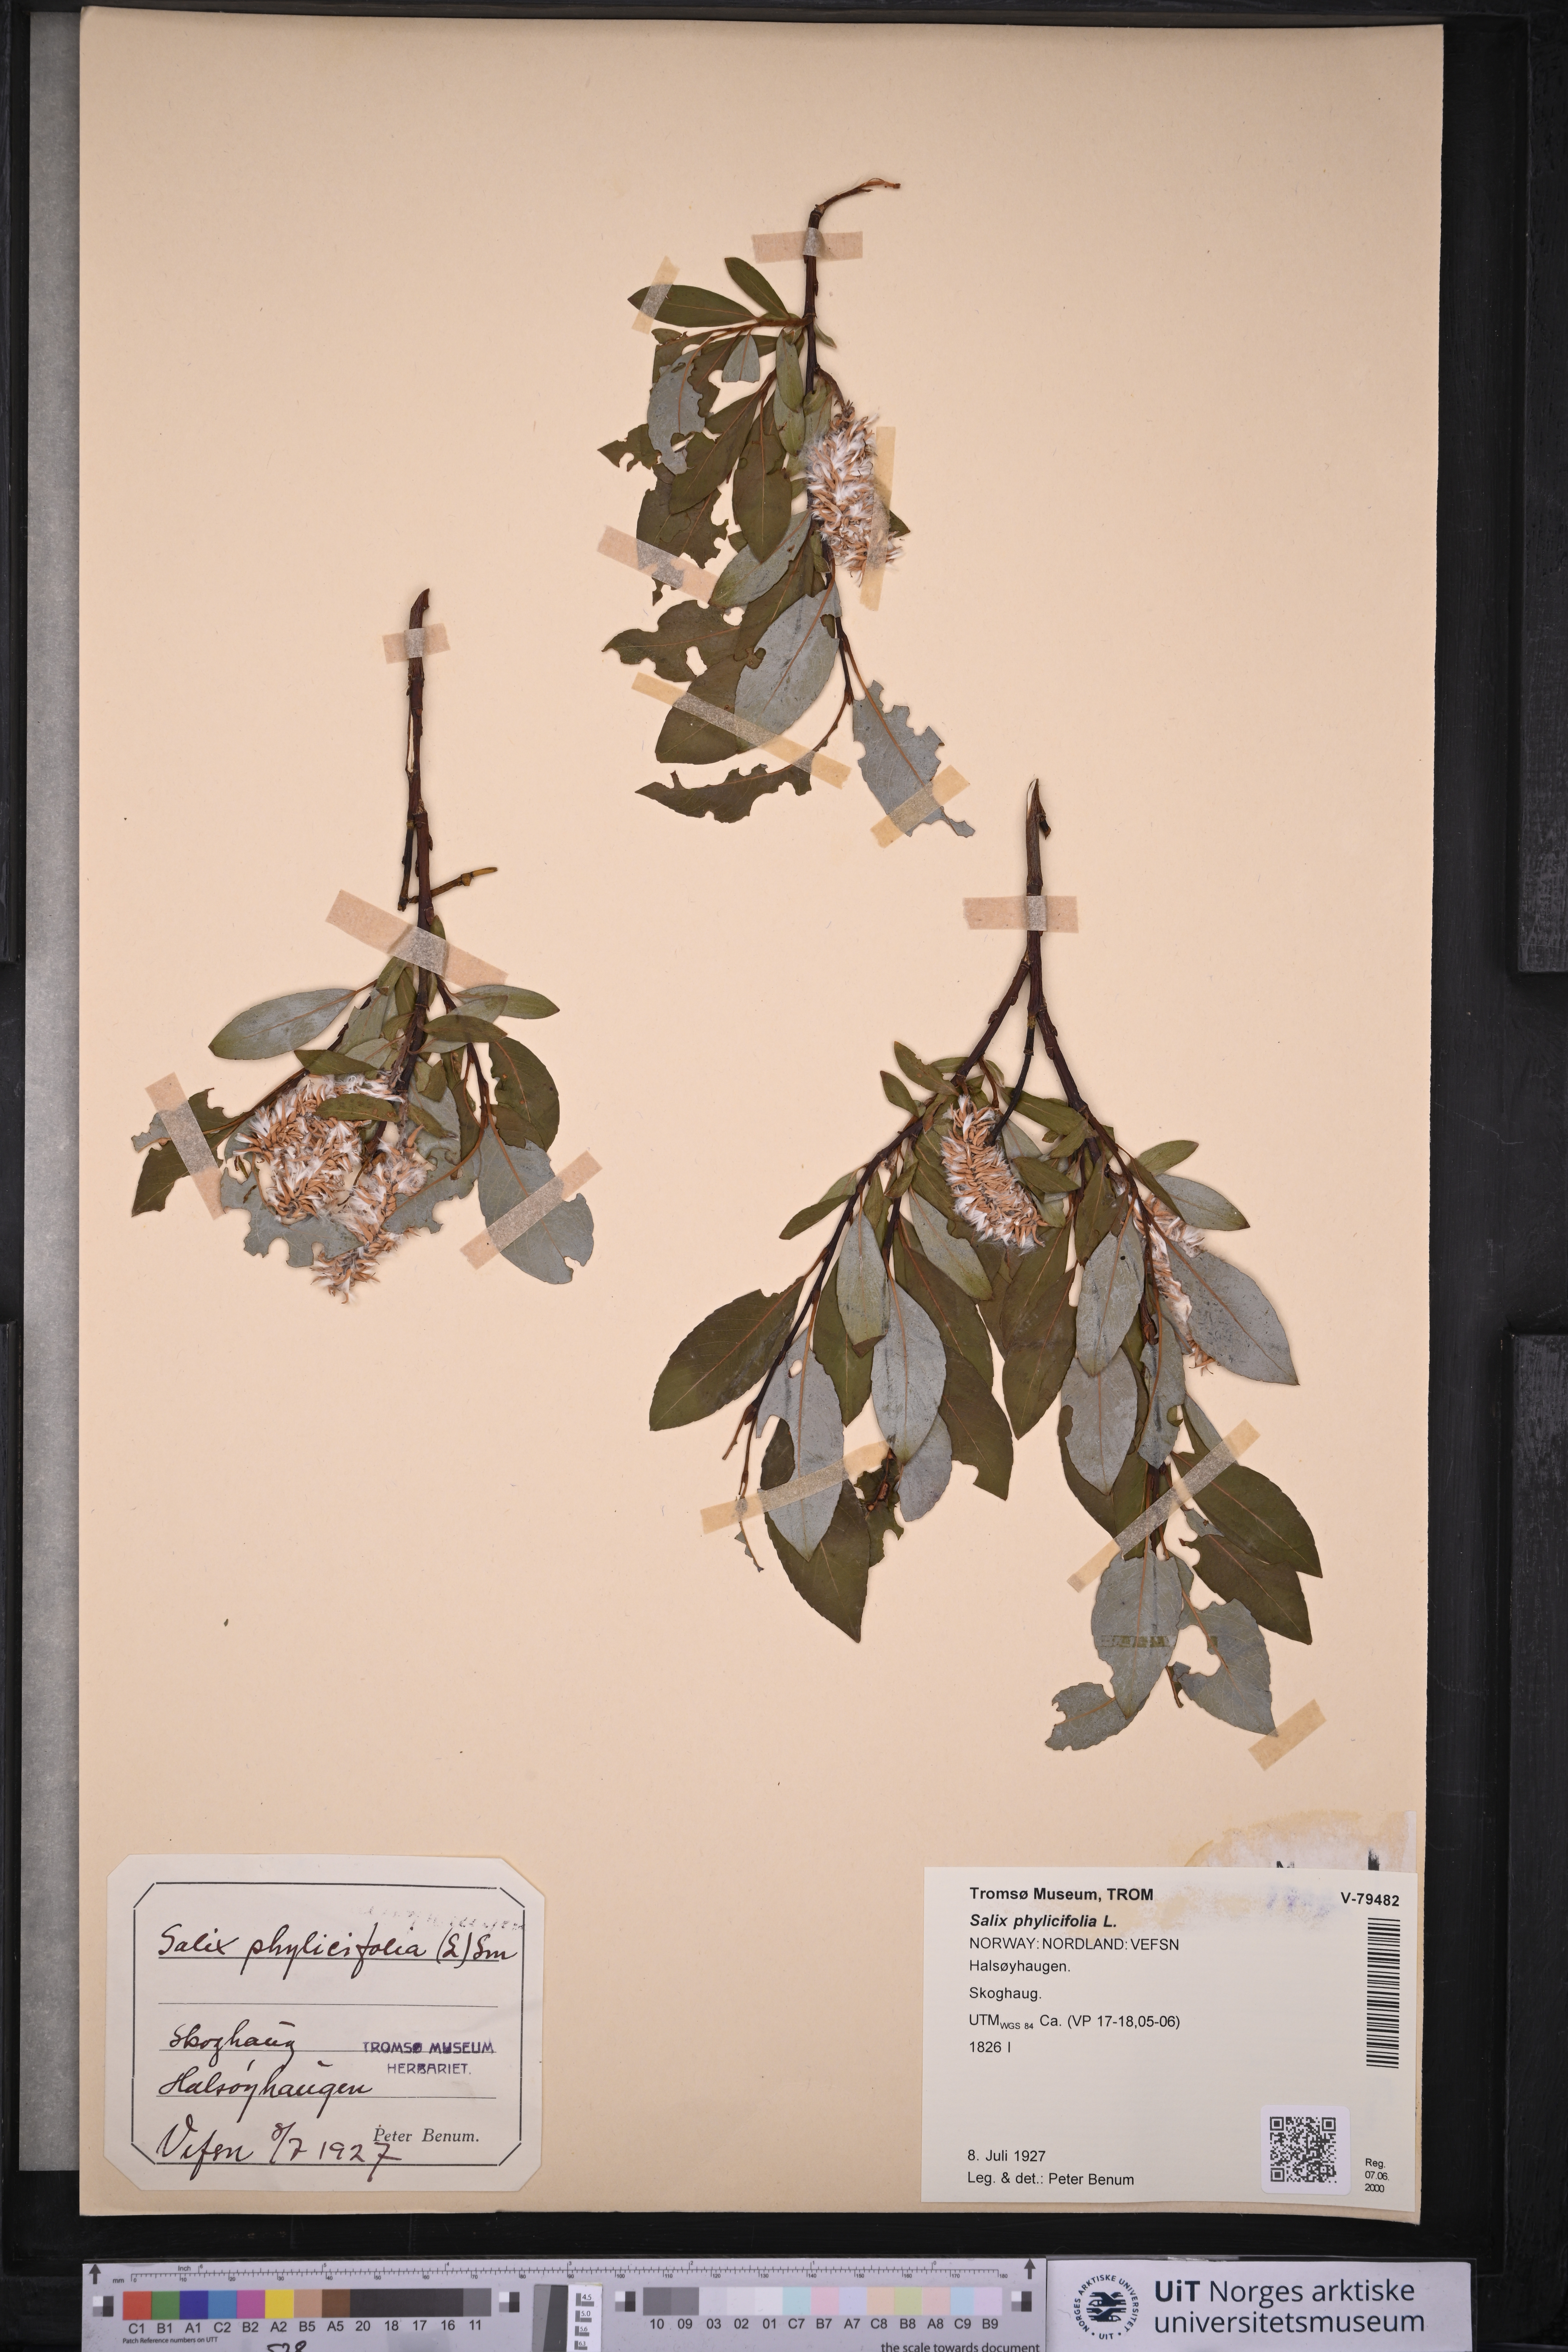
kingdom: Plantae
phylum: Tracheophyta
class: Magnoliopsida
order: Malpighiales
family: Salicaceae
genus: Salix
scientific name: Salix phylicifolia
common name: Tea-leaved willow
